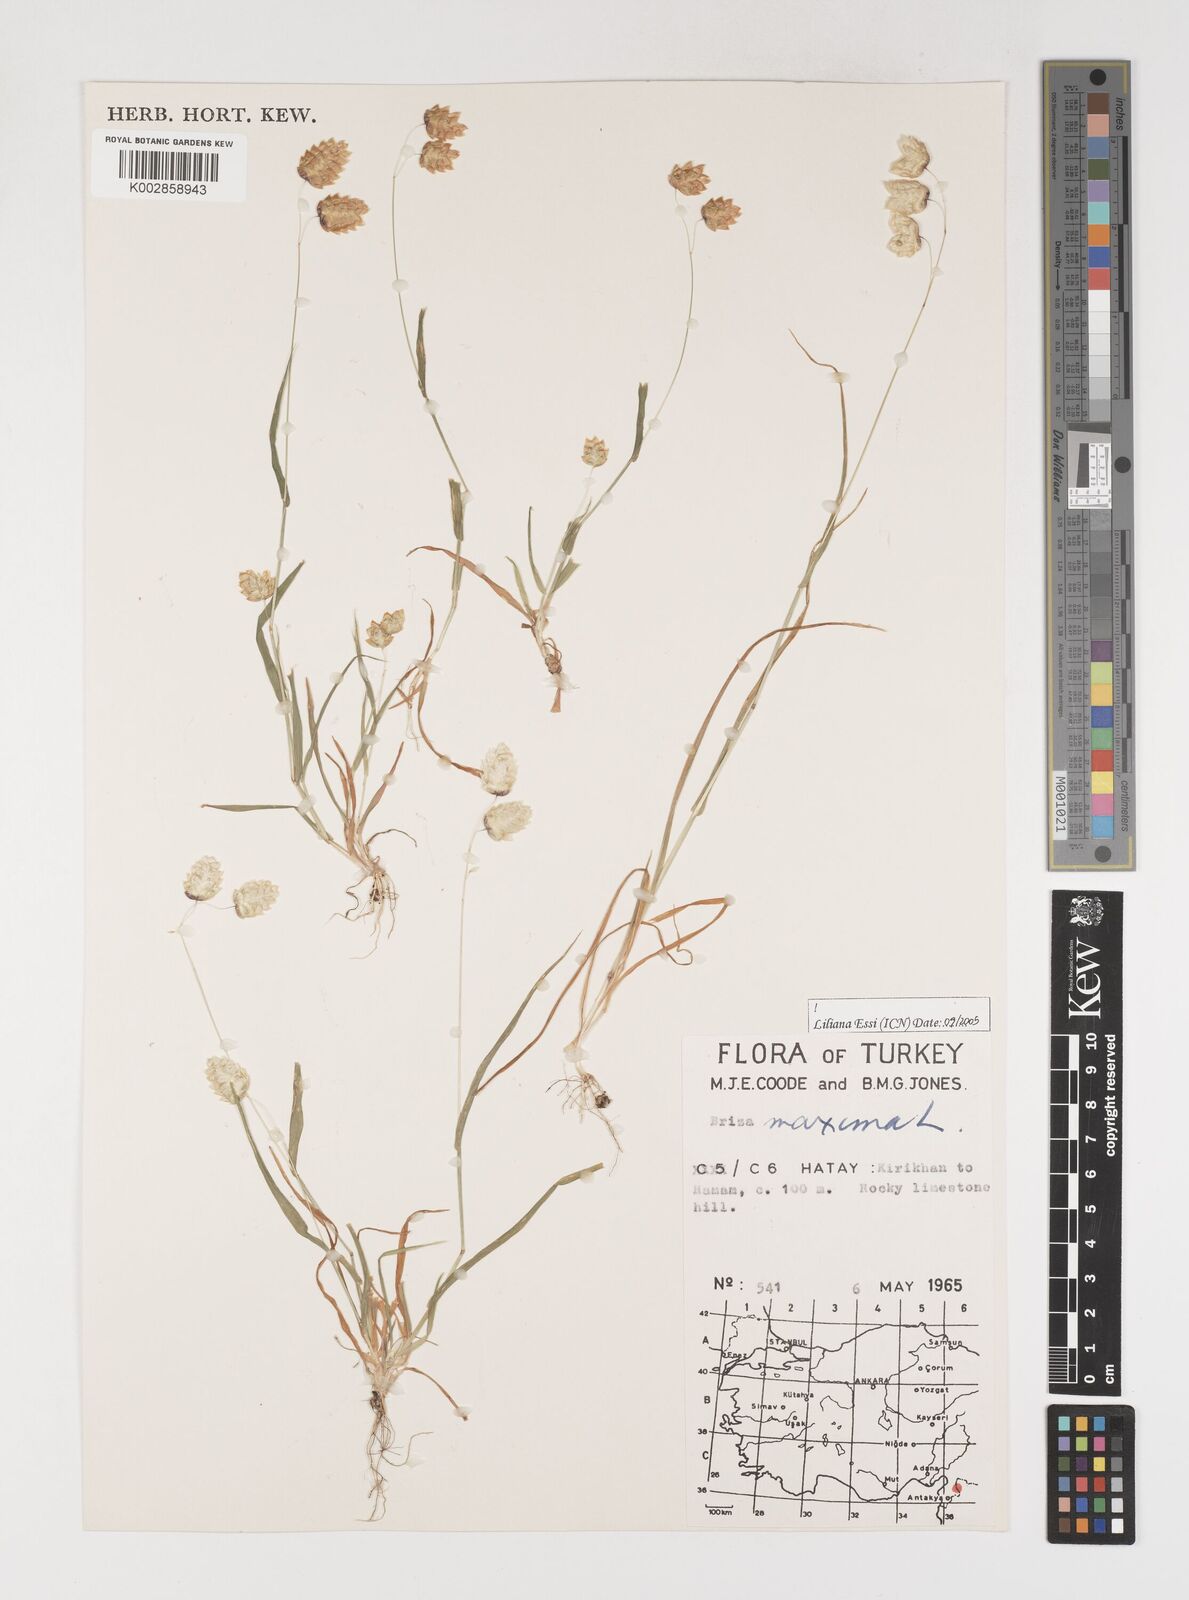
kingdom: Plantae
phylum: Tracheophyta
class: Liliopsida
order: Poales
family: Poaceae
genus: Briza
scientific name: Briza maxima
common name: Big quakinggrass
